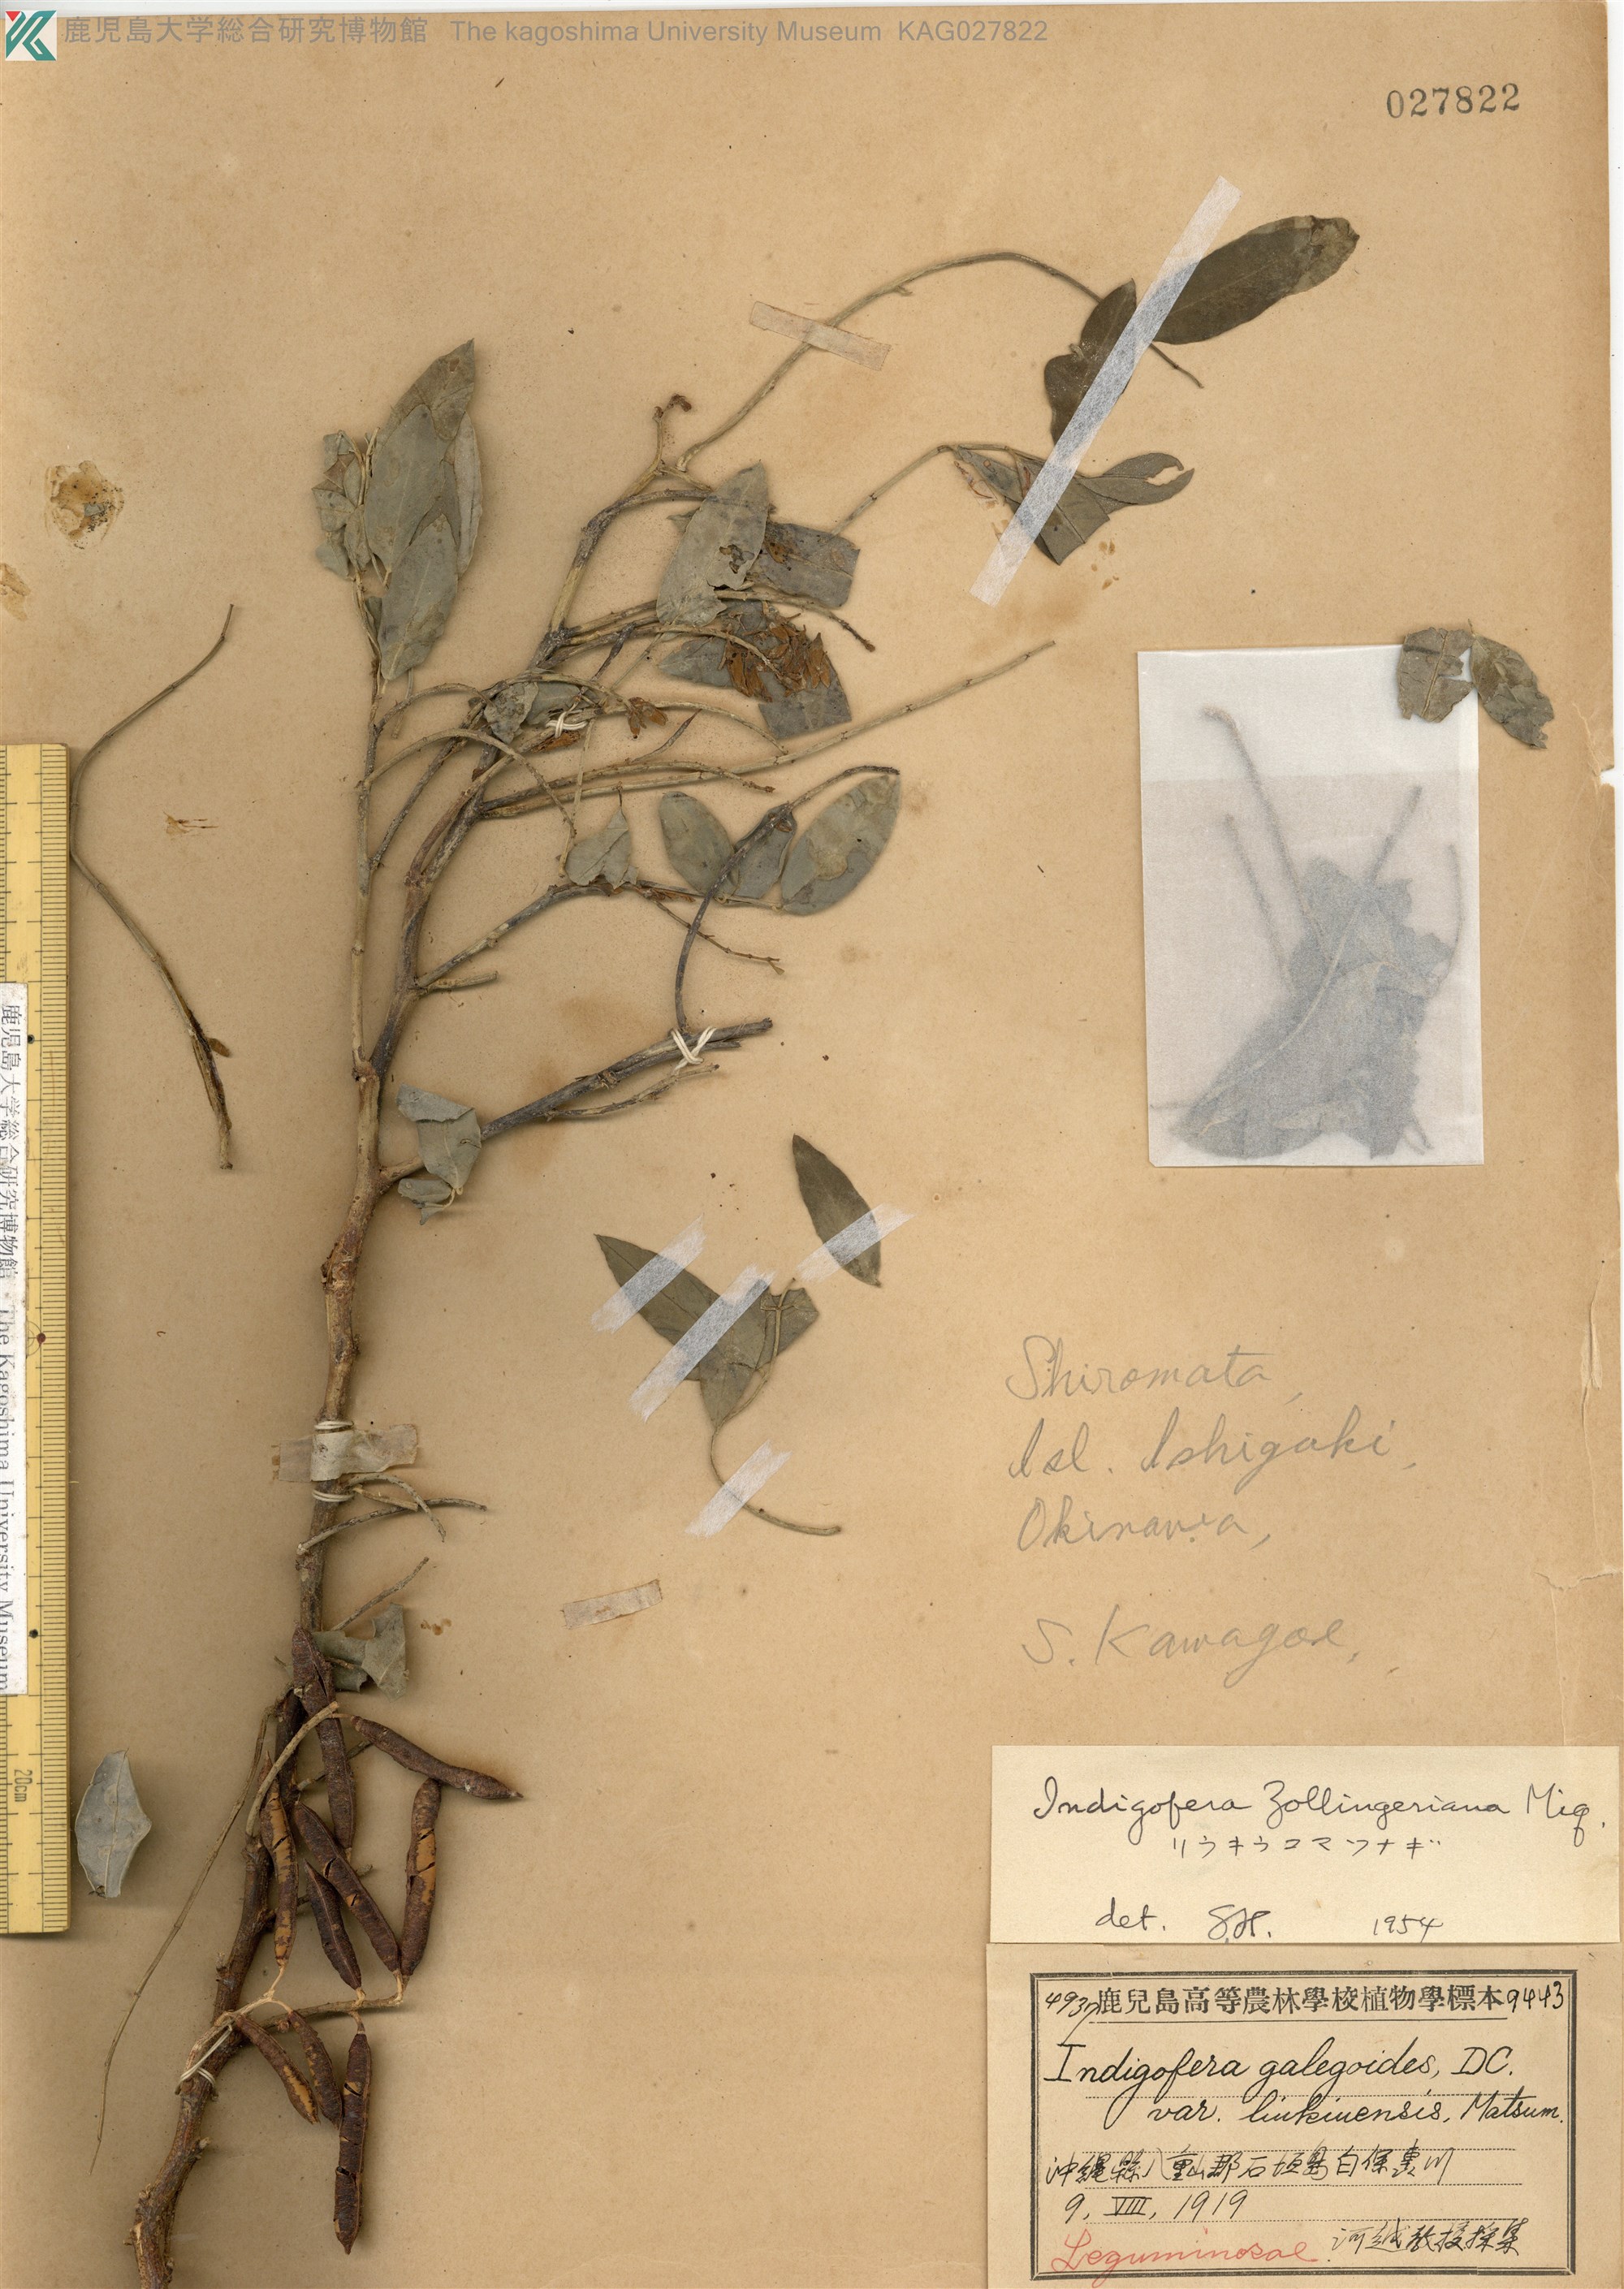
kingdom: Plantae
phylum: Tracheophyta
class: Magnoliopsida
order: Fabales
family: Fabaceae
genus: Indigofera
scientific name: Indigofera zollingeriana
